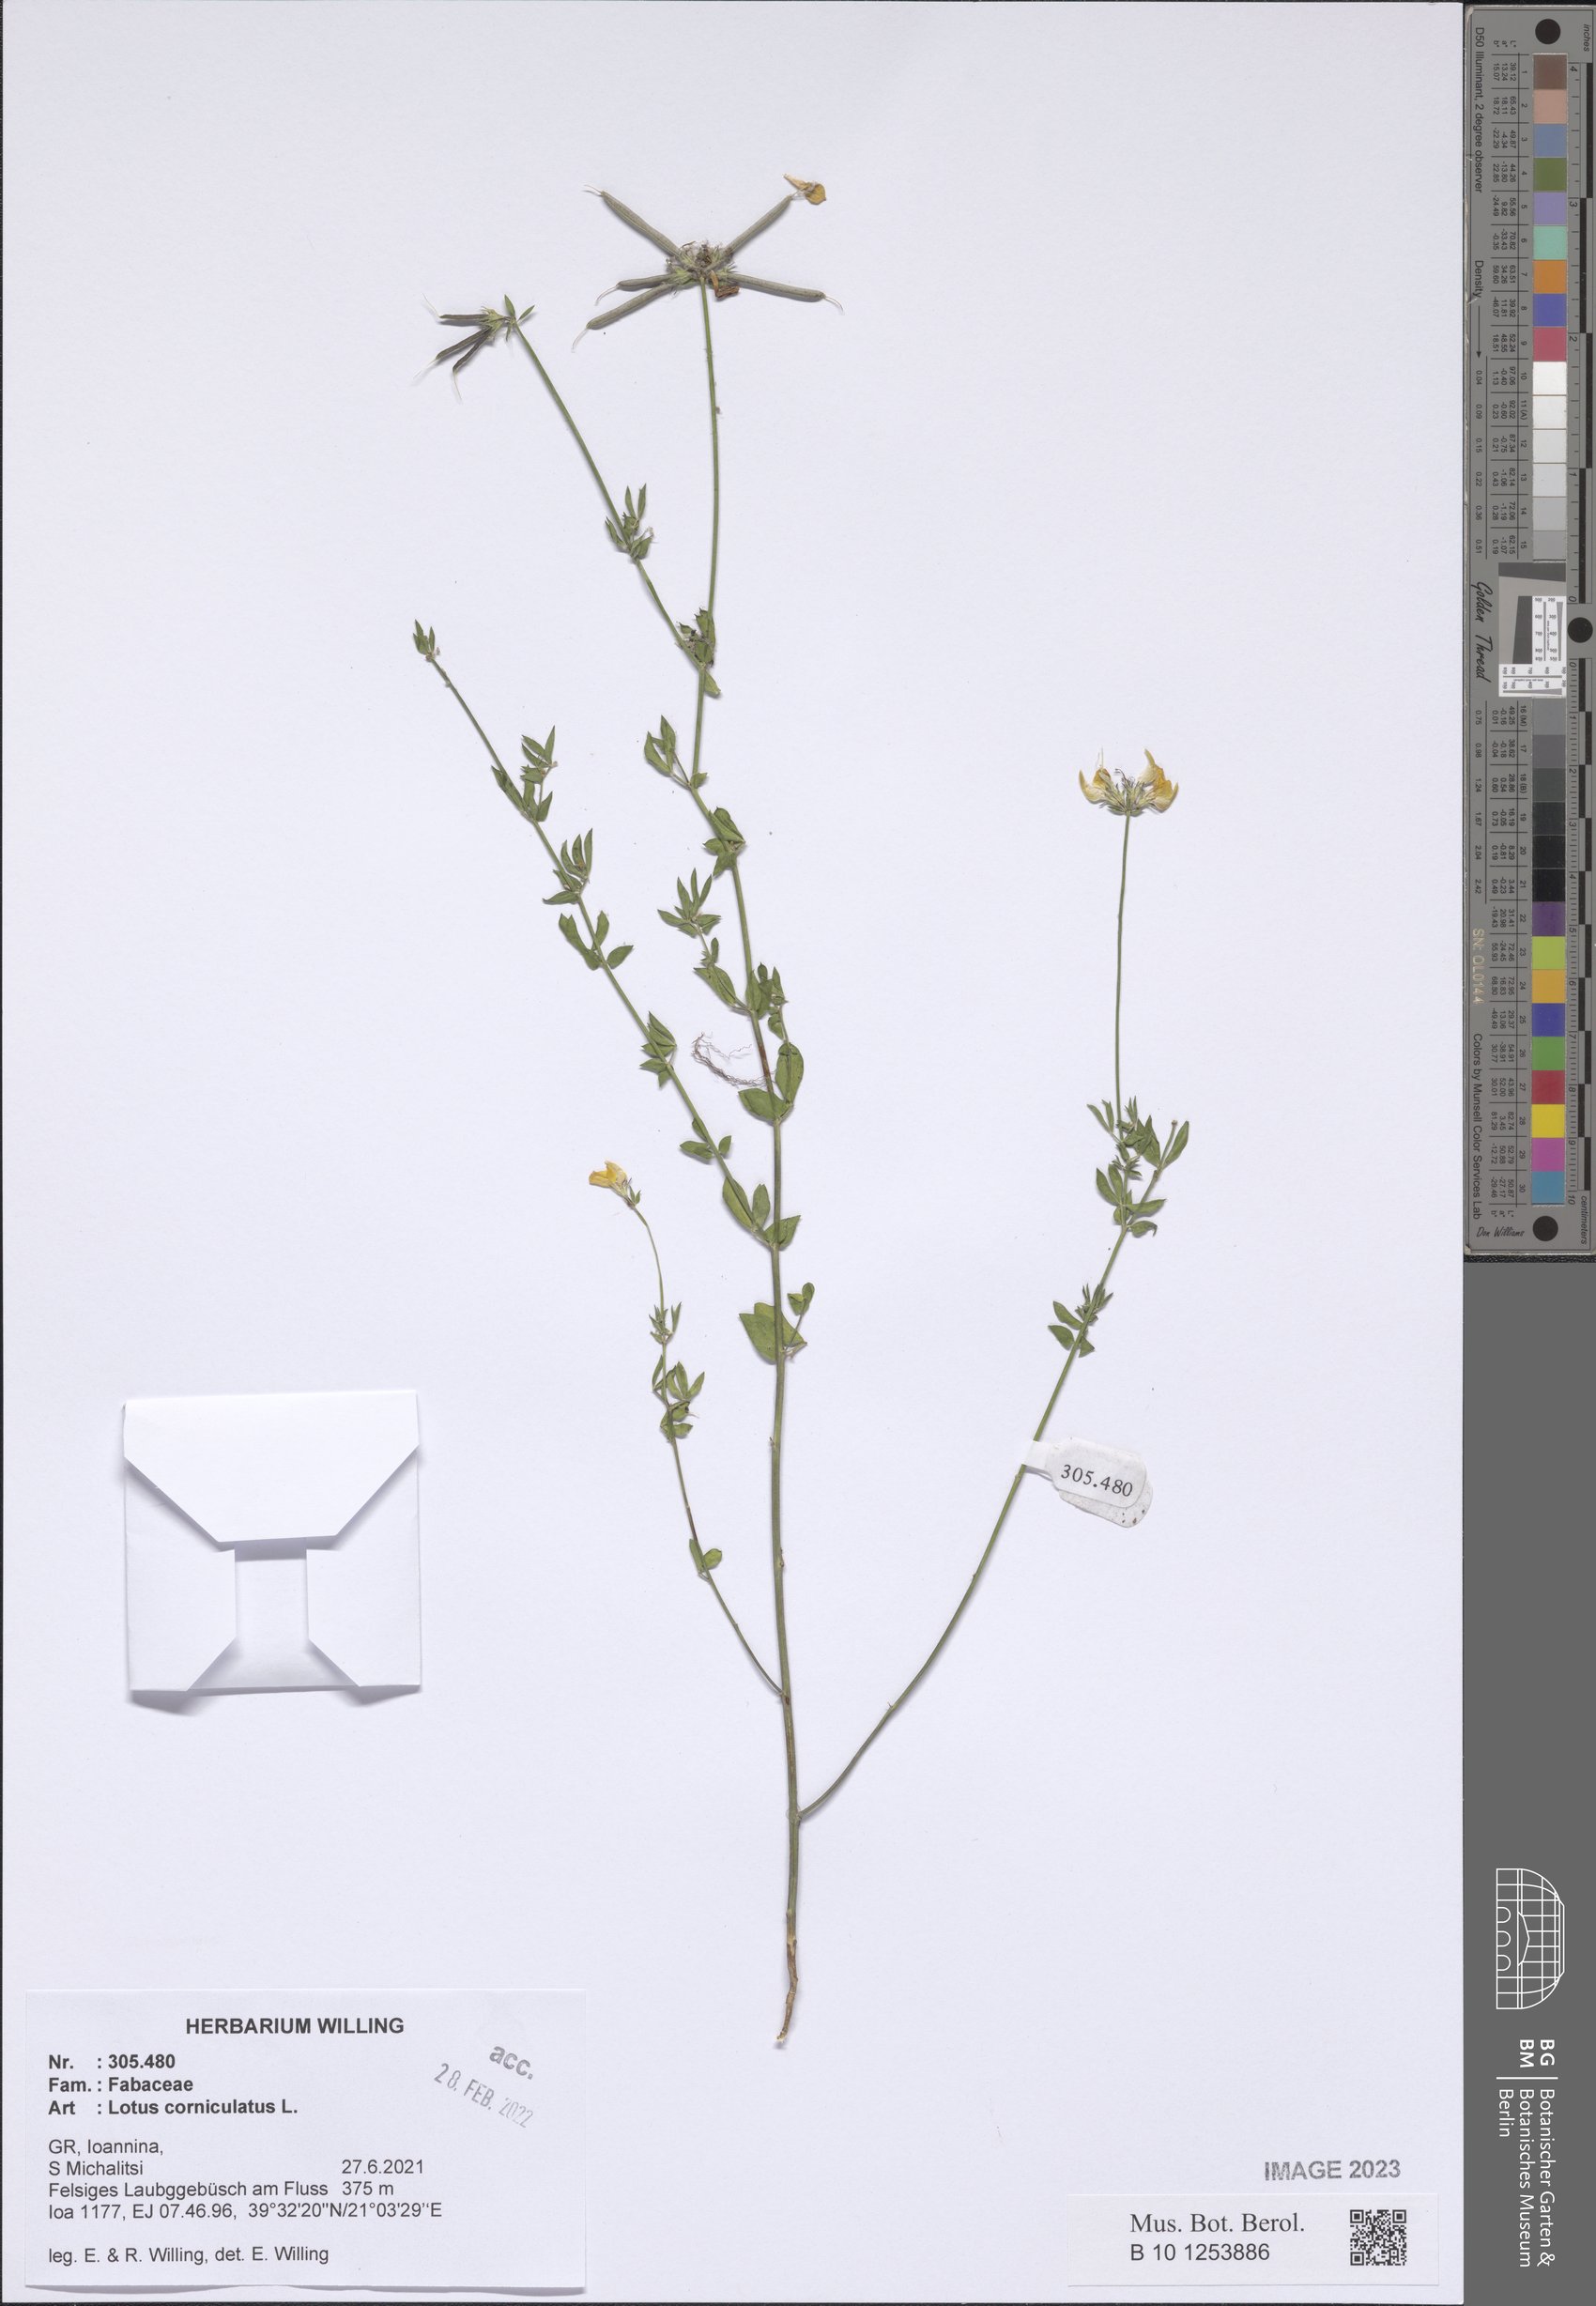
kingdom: Plantae
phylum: Tracheophyta
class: Magnoliopsida
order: Fabales
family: Fabaceae
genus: Lotus
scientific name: Lotus corniculatus
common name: Common bird's-foot-trefoil
